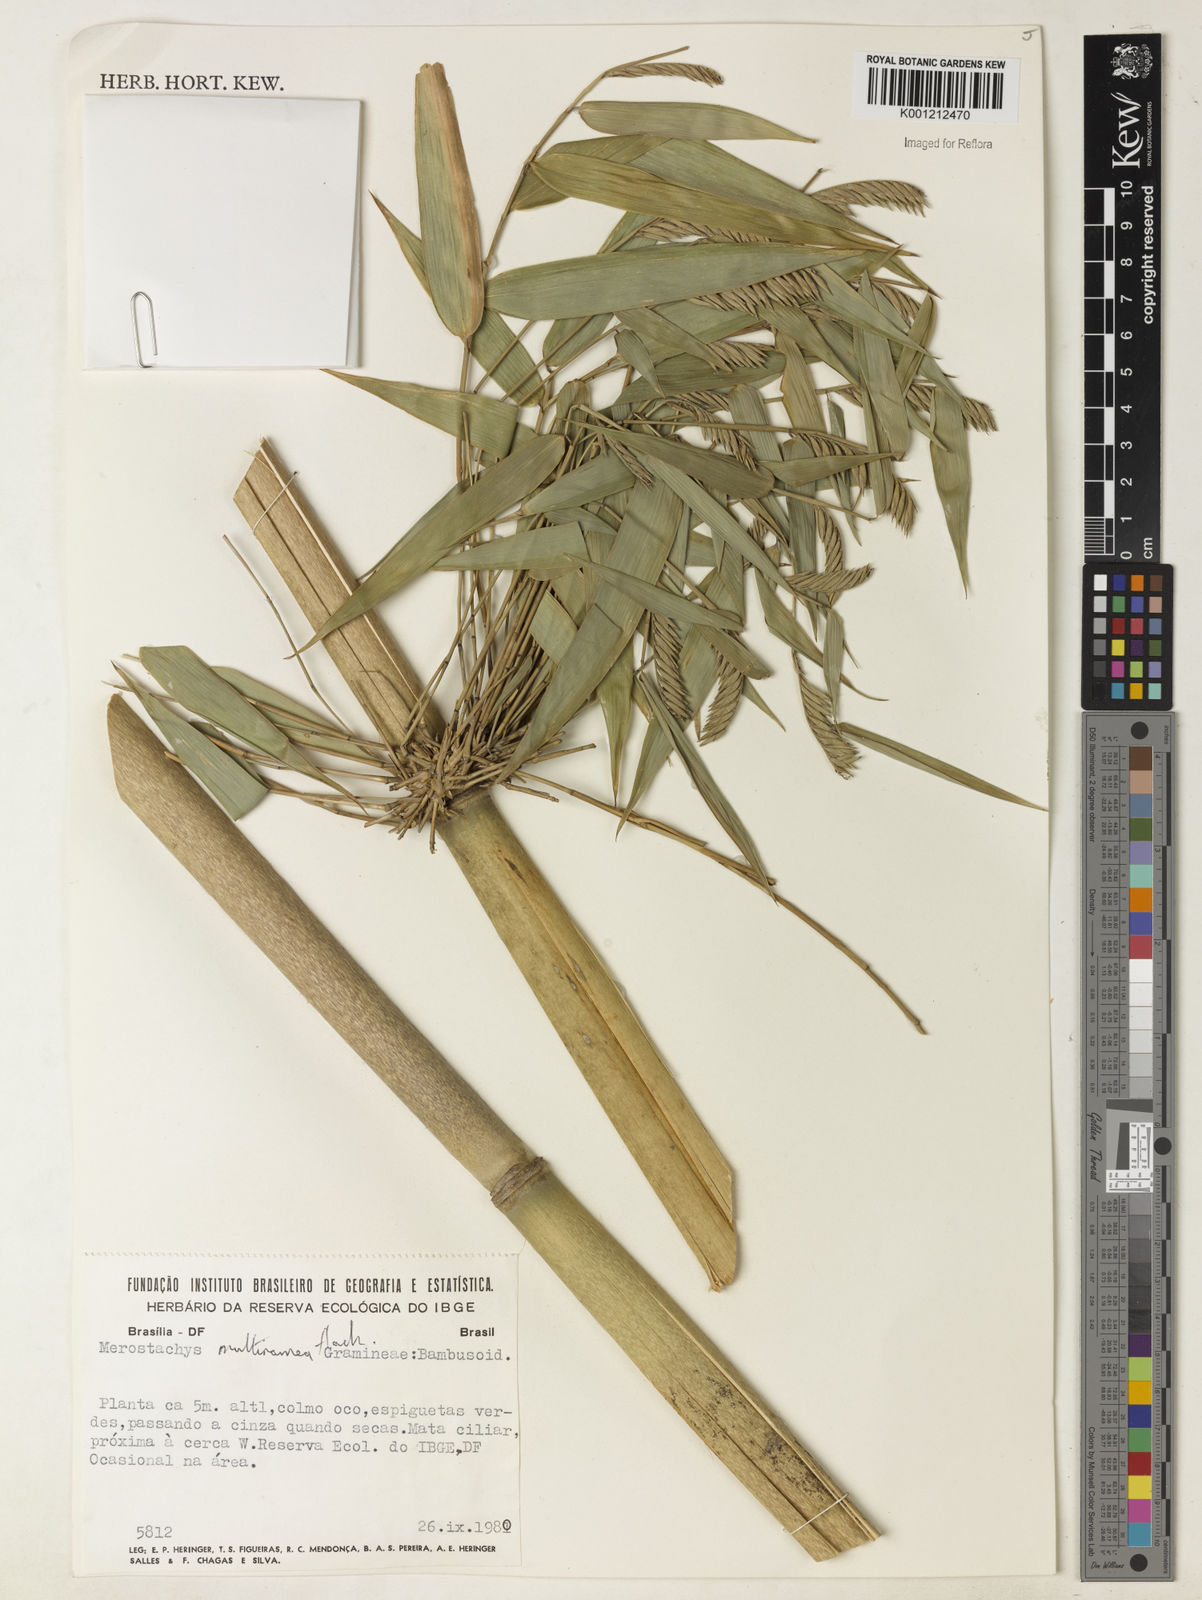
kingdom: Plantae
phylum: Tracheophyta
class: Liliopsida
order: Poales
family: Poaceae
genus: Merostachys
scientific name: Merostachys multiramea
